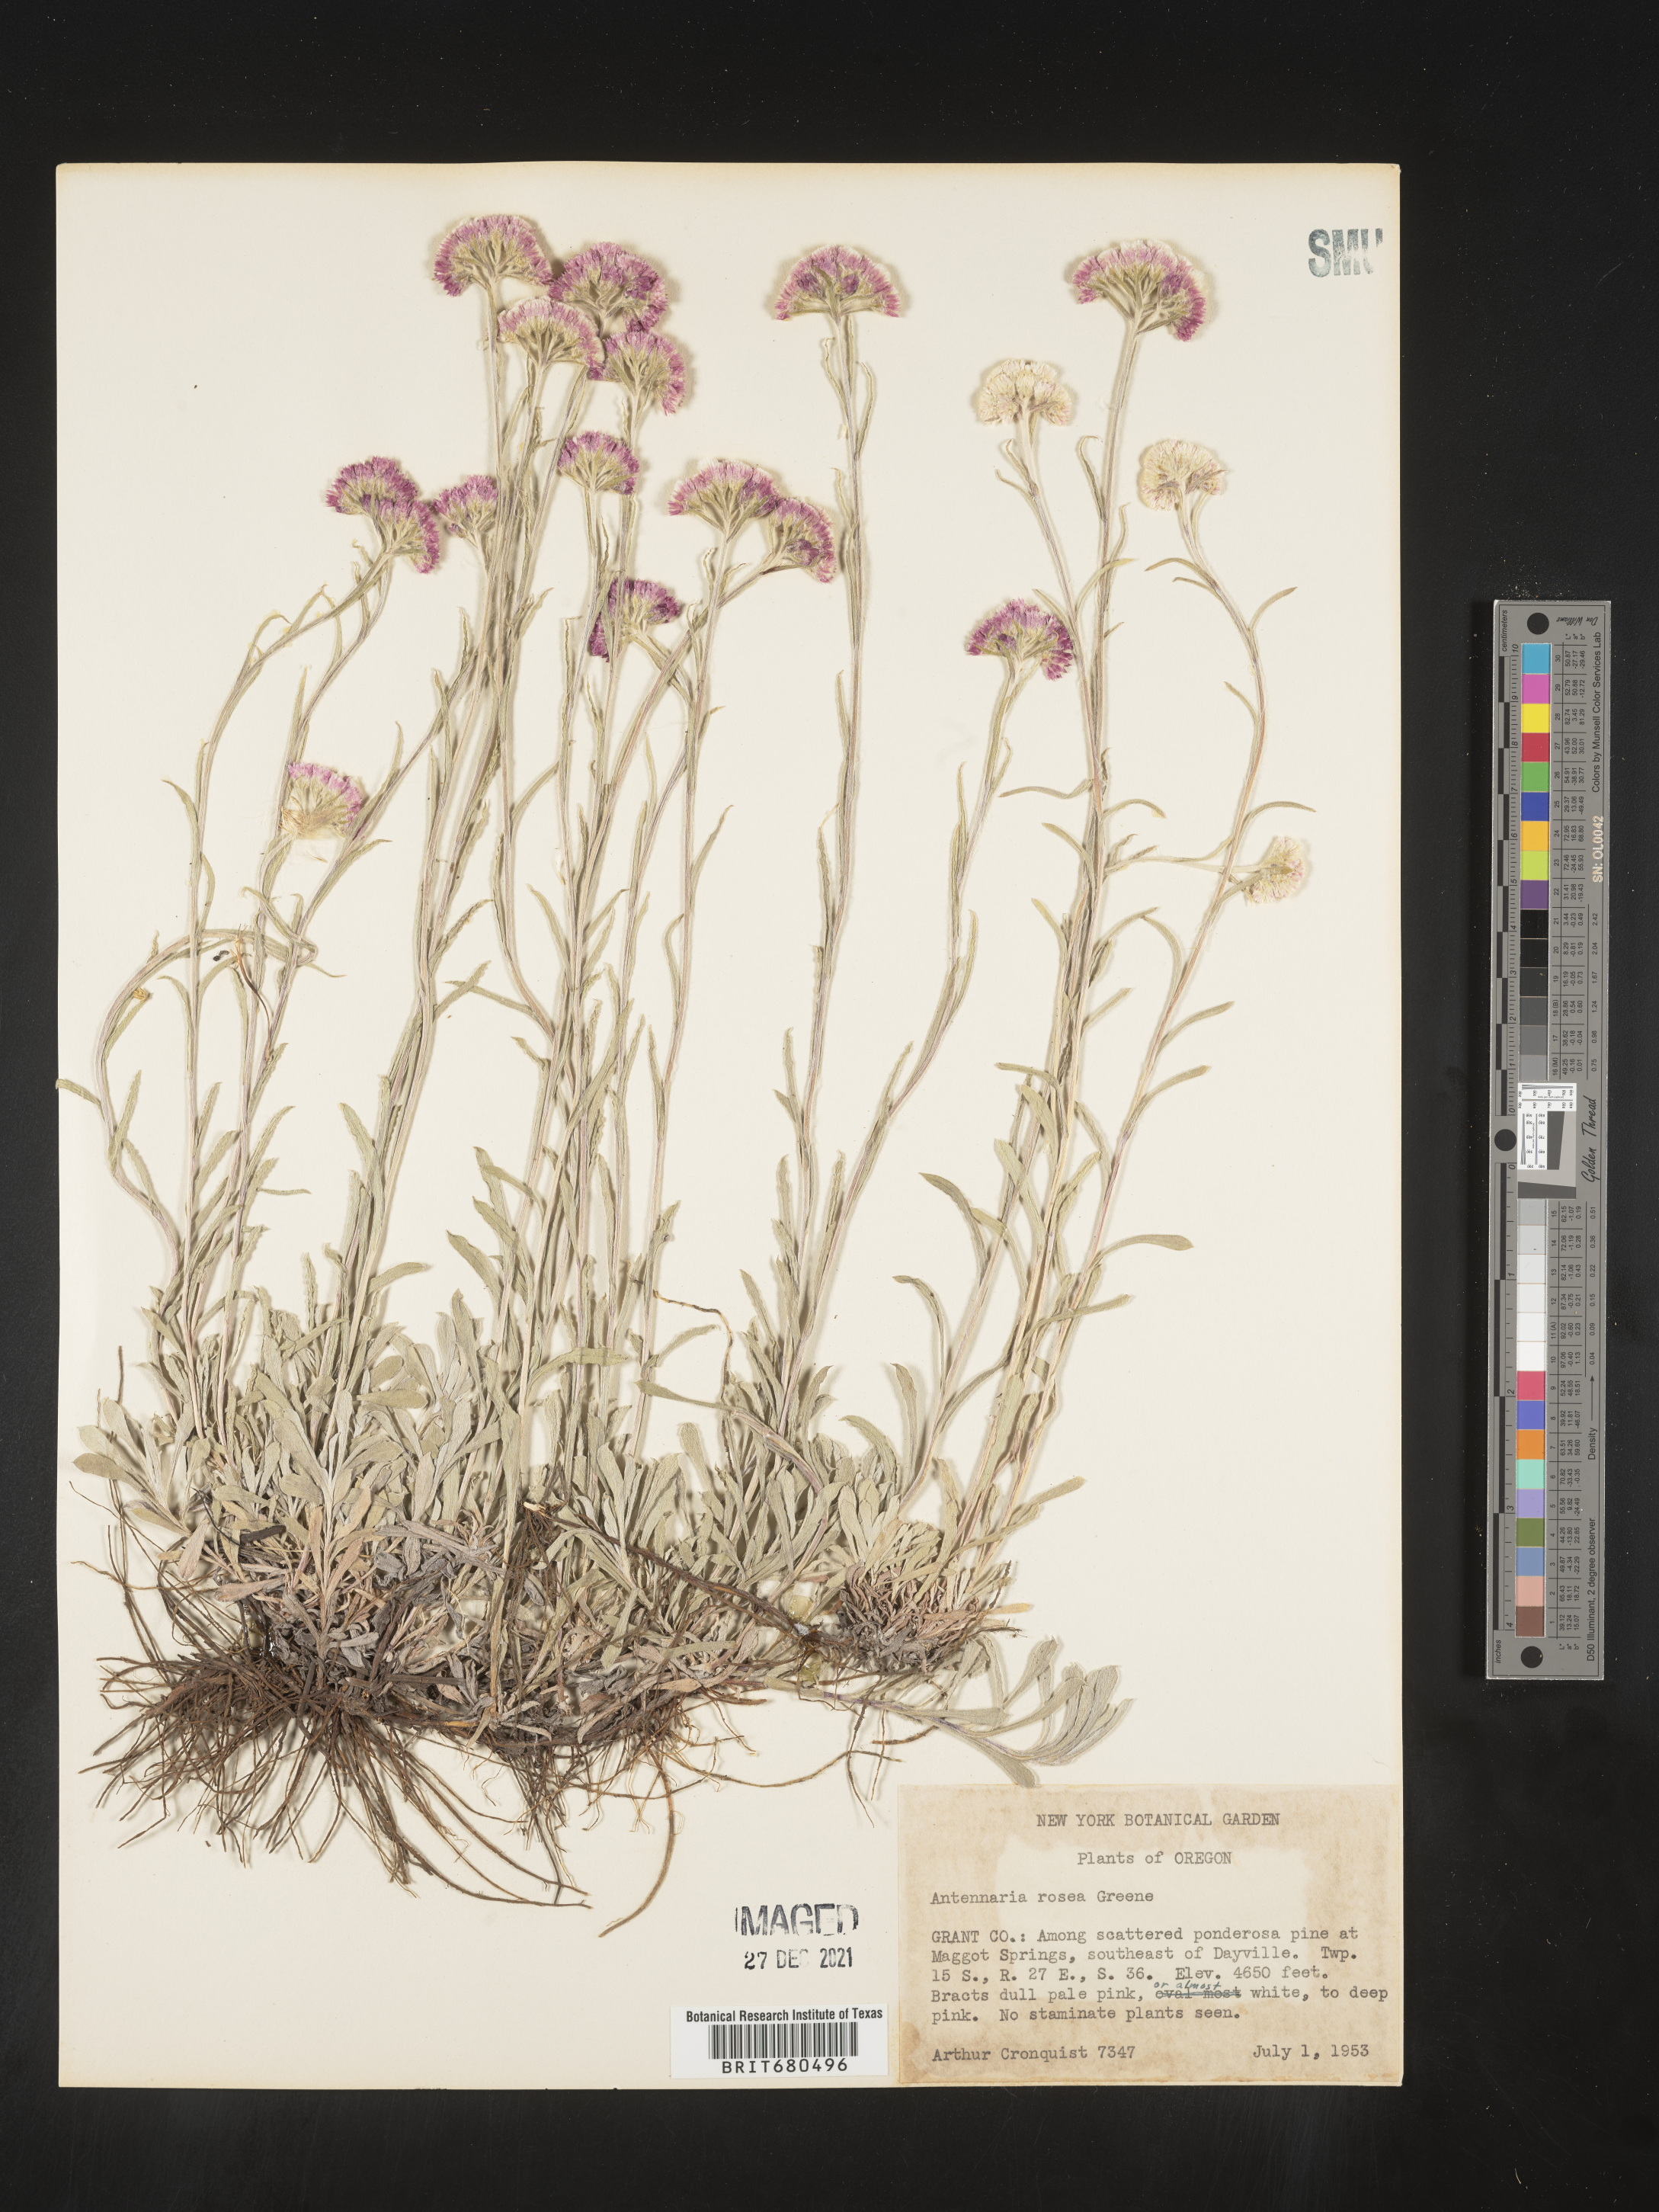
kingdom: Plantae
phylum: Tracheophyta
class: Magnoliopsida
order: Asterales
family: Asteraceae
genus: Antennaria
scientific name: Antennaria rosea
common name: Rosy pussytoes
